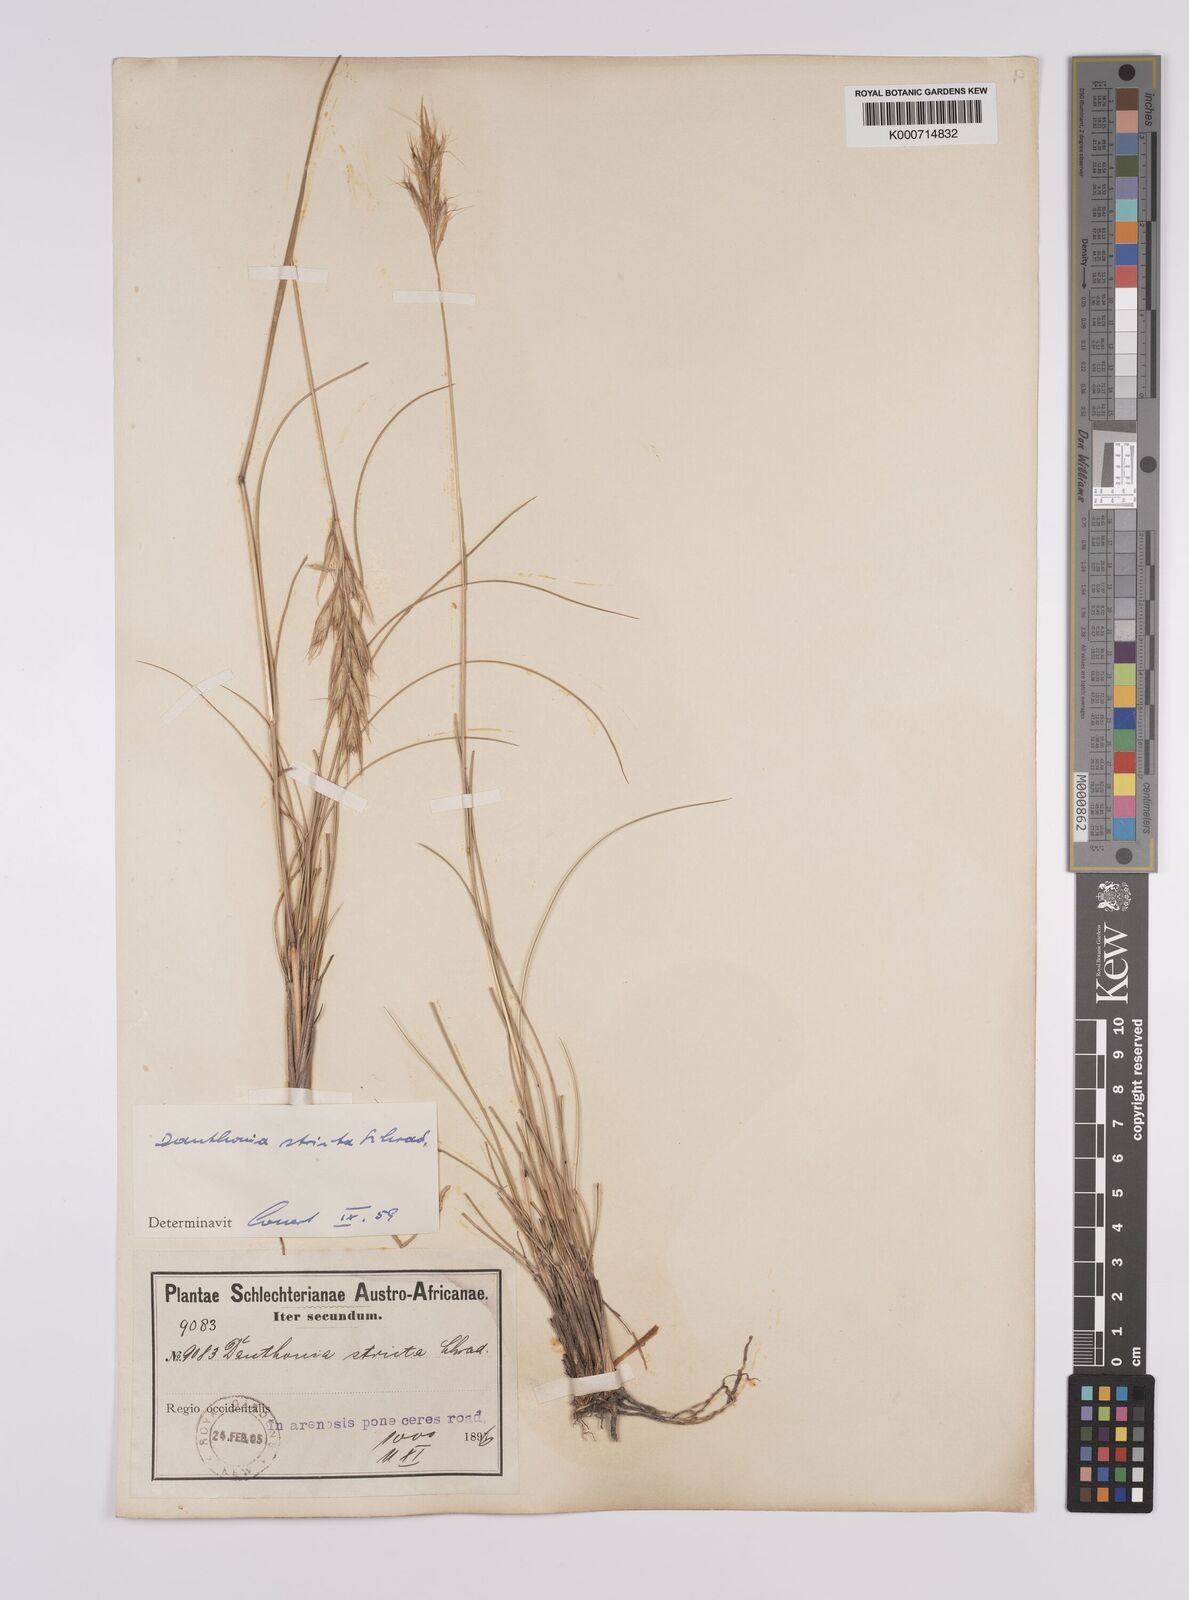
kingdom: Plantae
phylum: Tracheophyta
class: Liliopsida
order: Poales
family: Poaceae
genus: Rytidosperma
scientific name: Rytidosperma
